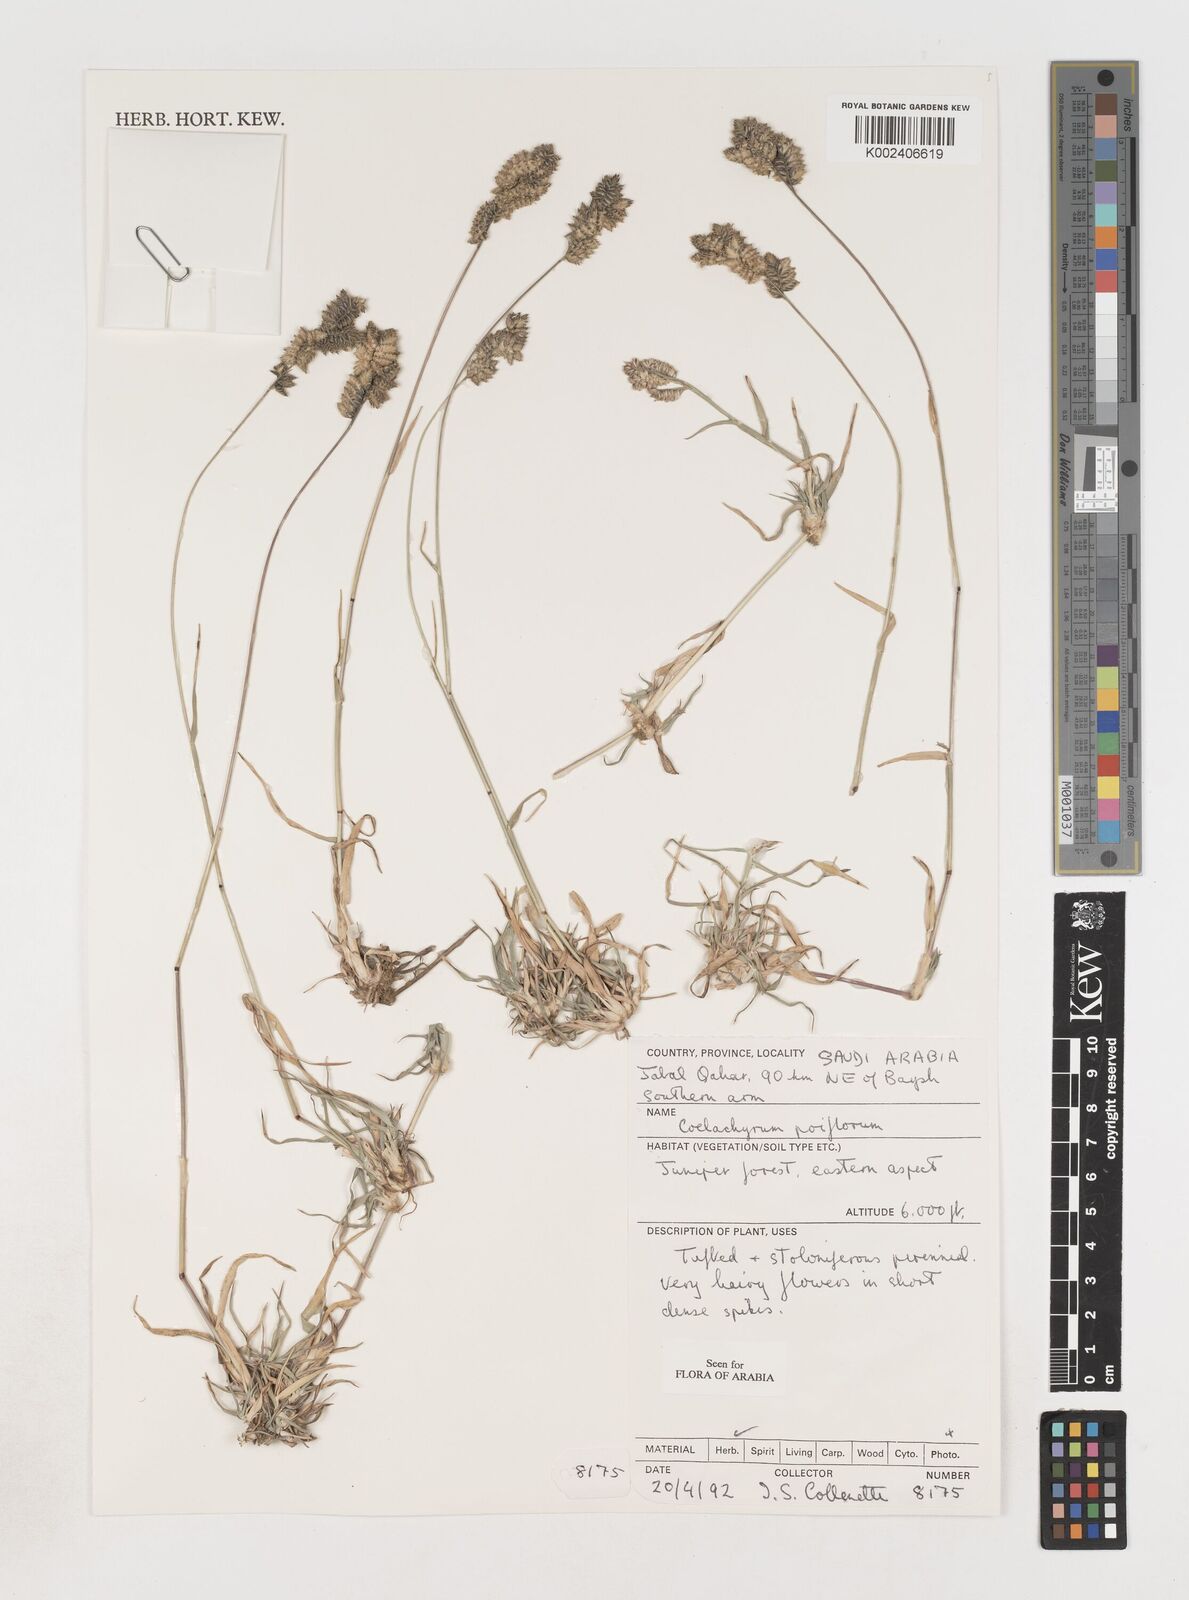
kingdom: Plantae
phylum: Tracheophyta
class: Liliopsida
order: Poales
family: Poaceae
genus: Coelachyrum
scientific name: Coelachyrum poiflorum
